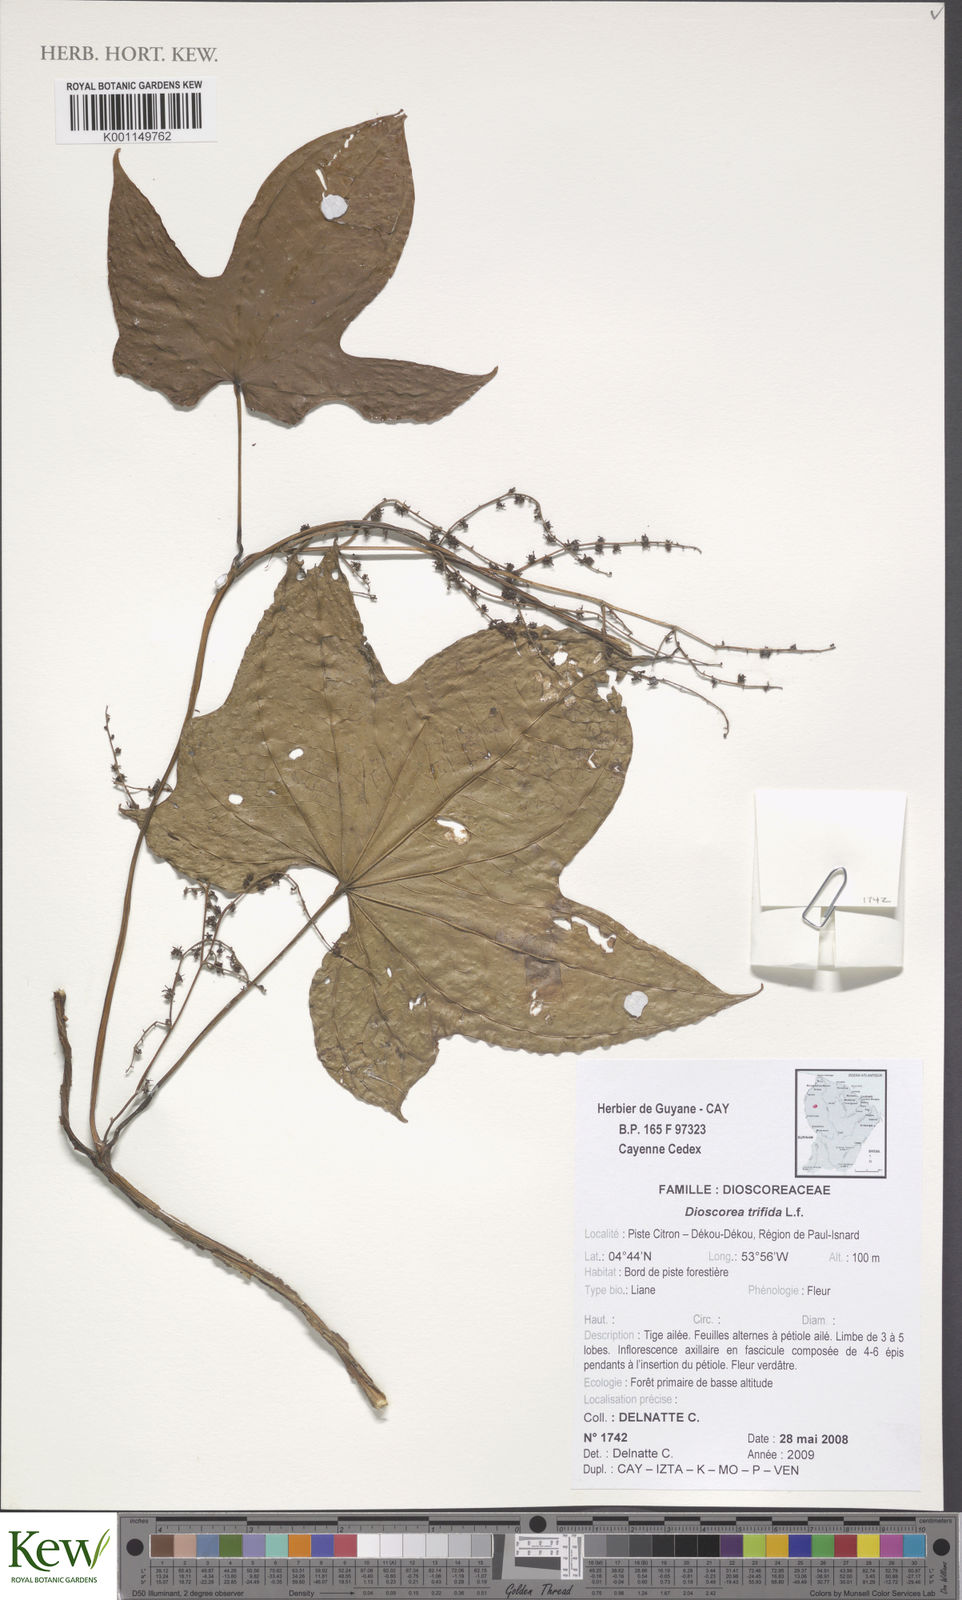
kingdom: Plantae
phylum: Tracheophyta
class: Liliopsida
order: Dioscoreales
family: Dioscoreaceae
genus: Dioscorea
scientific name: Dioscorea trifida
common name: Cush-cush
